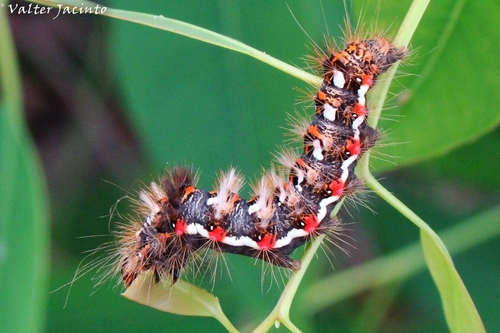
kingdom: Animalia
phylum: Arthropoda
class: Insecta
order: Lepidoptera
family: Noctuidae
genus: Acronicta
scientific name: Acronicta rumicis
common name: Knot grass
